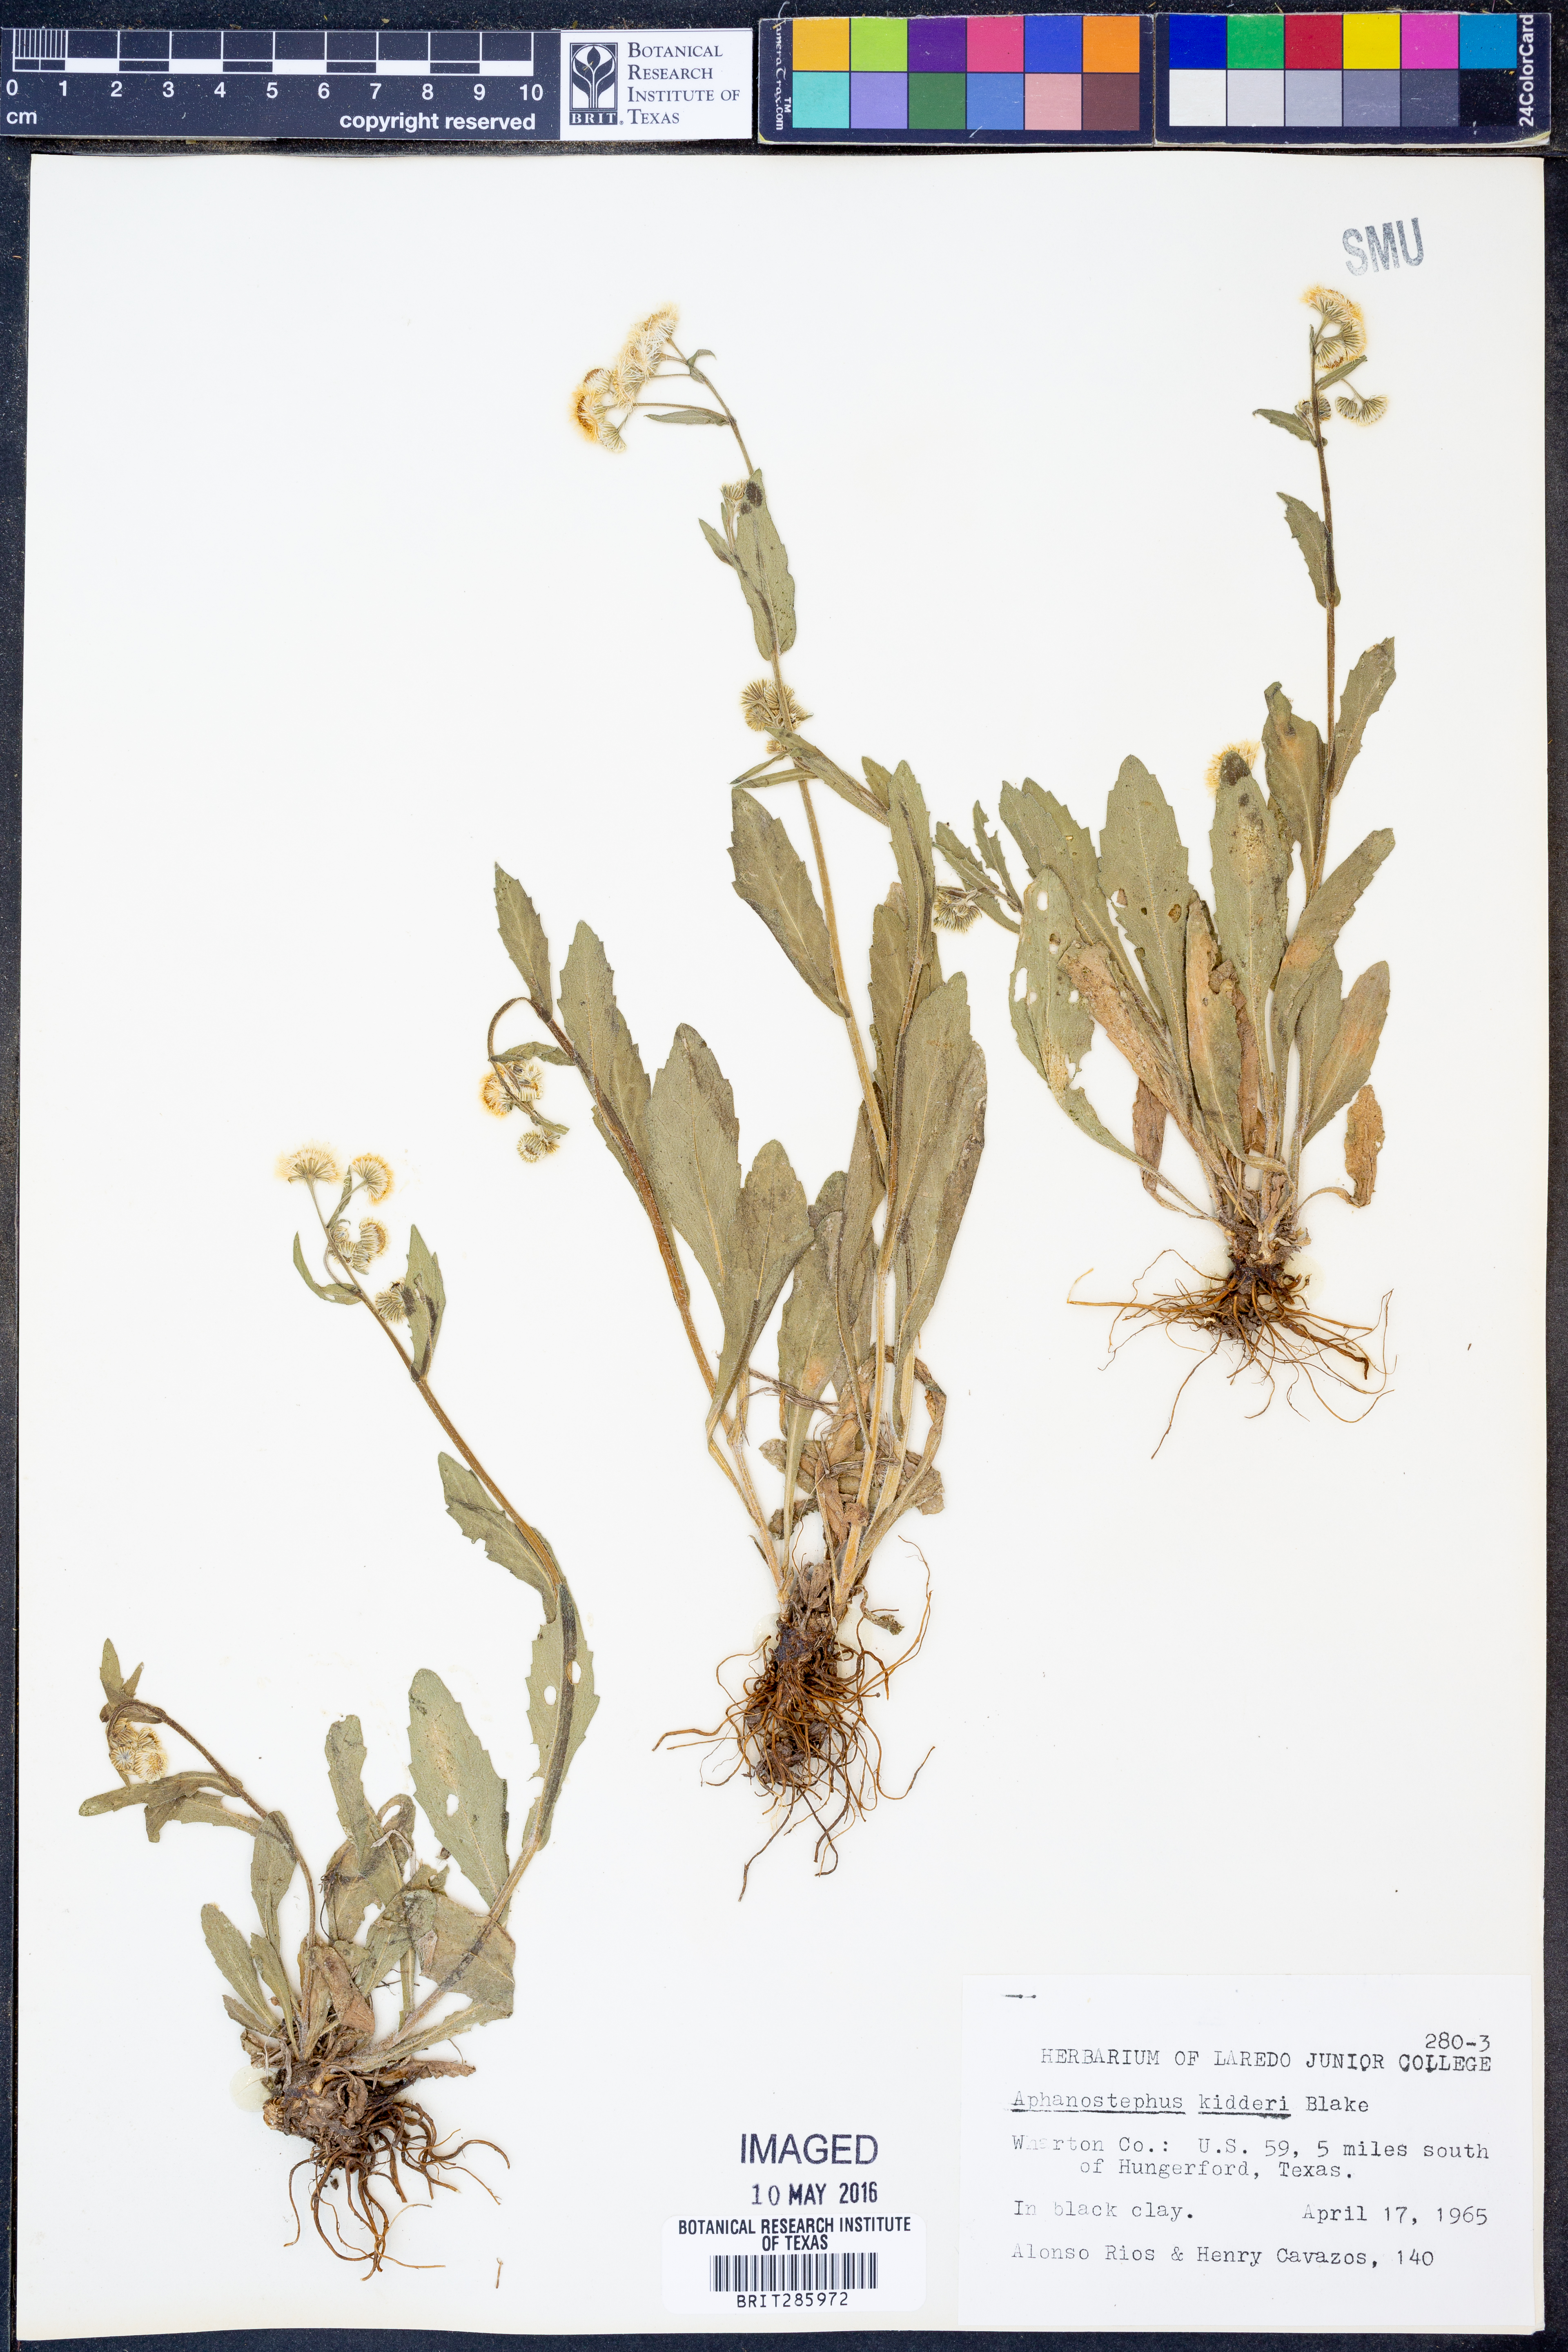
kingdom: Plantae
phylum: Tracheophyta
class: Magnoliopsida
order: Asterales
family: Asteraceae
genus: Aphanostephus
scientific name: Aphanostephus skirrhobasis
